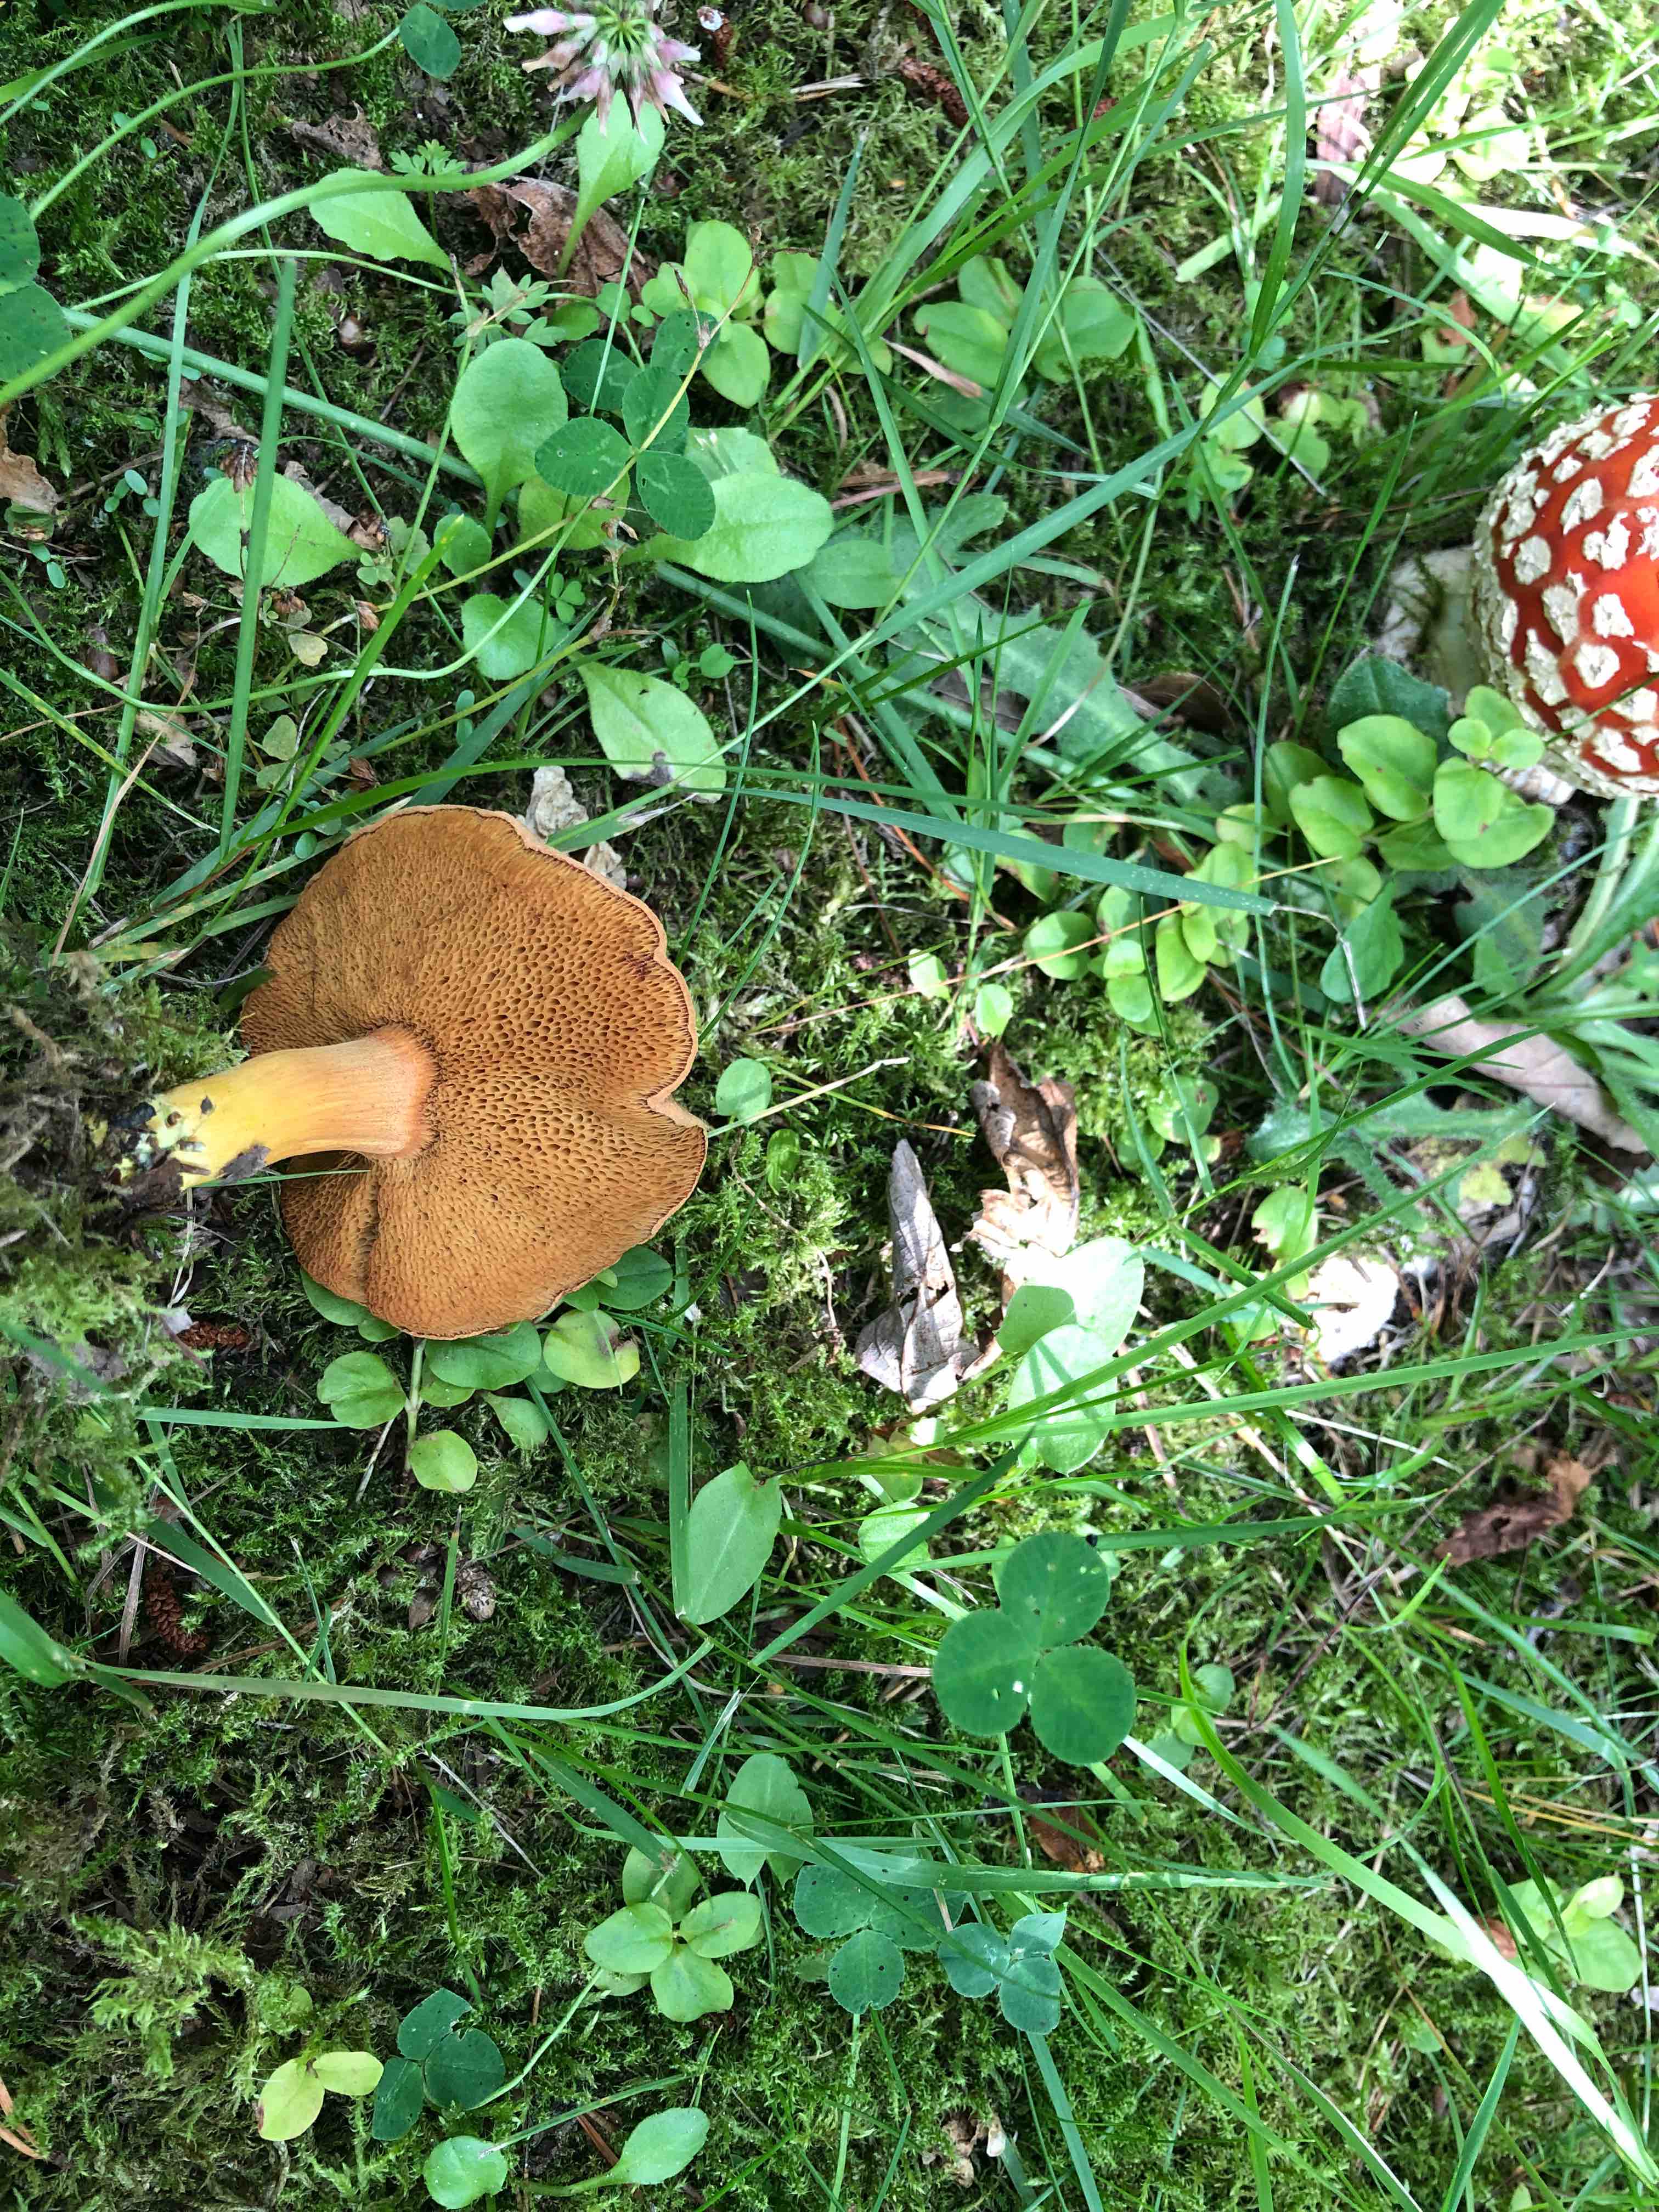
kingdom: Fungi
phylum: Basidiomycota
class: Agaricomycetes
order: Boletales
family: Boletaceae
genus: Chalciporus
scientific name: Chalciporus piperatus
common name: peberrørhat
